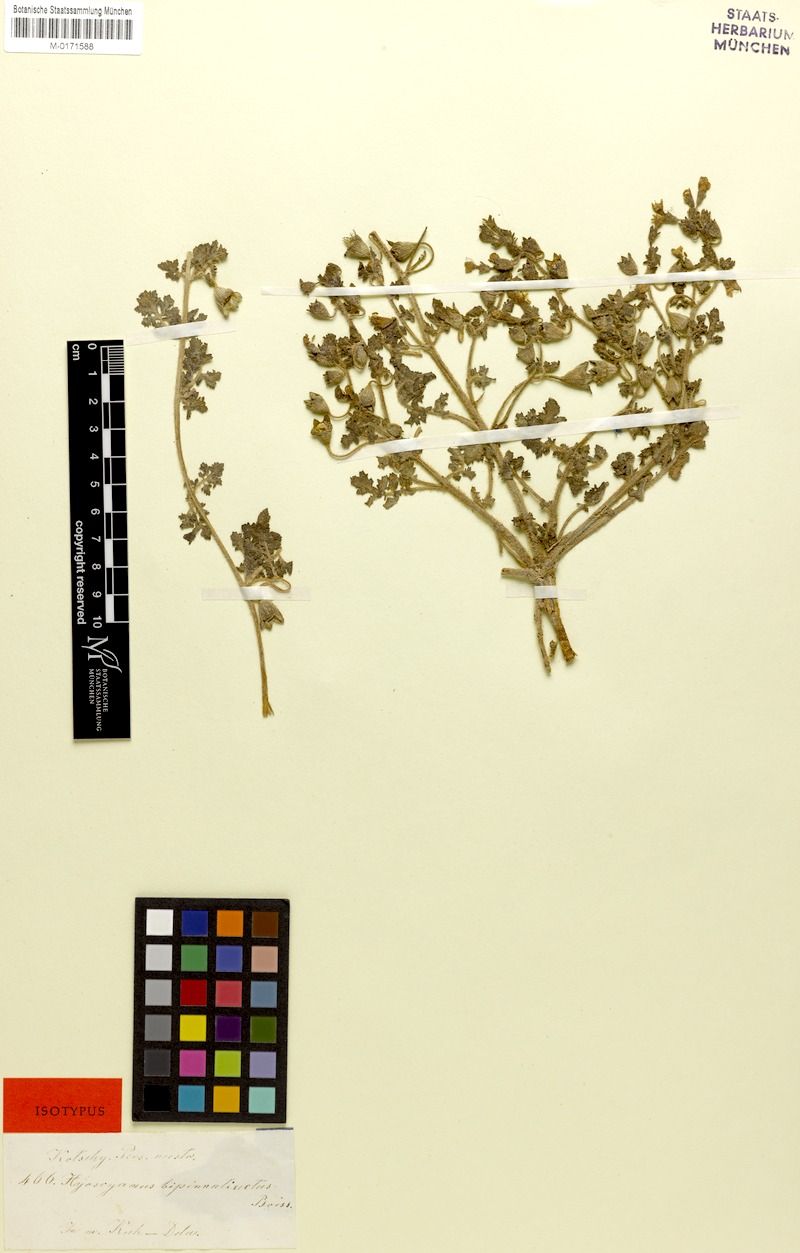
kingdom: Plantae
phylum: Tracheophyta
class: Magnoliopsida
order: Solanales
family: Solanaceae
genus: Hyoscyamus
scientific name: Hyoscyamus senecionis
